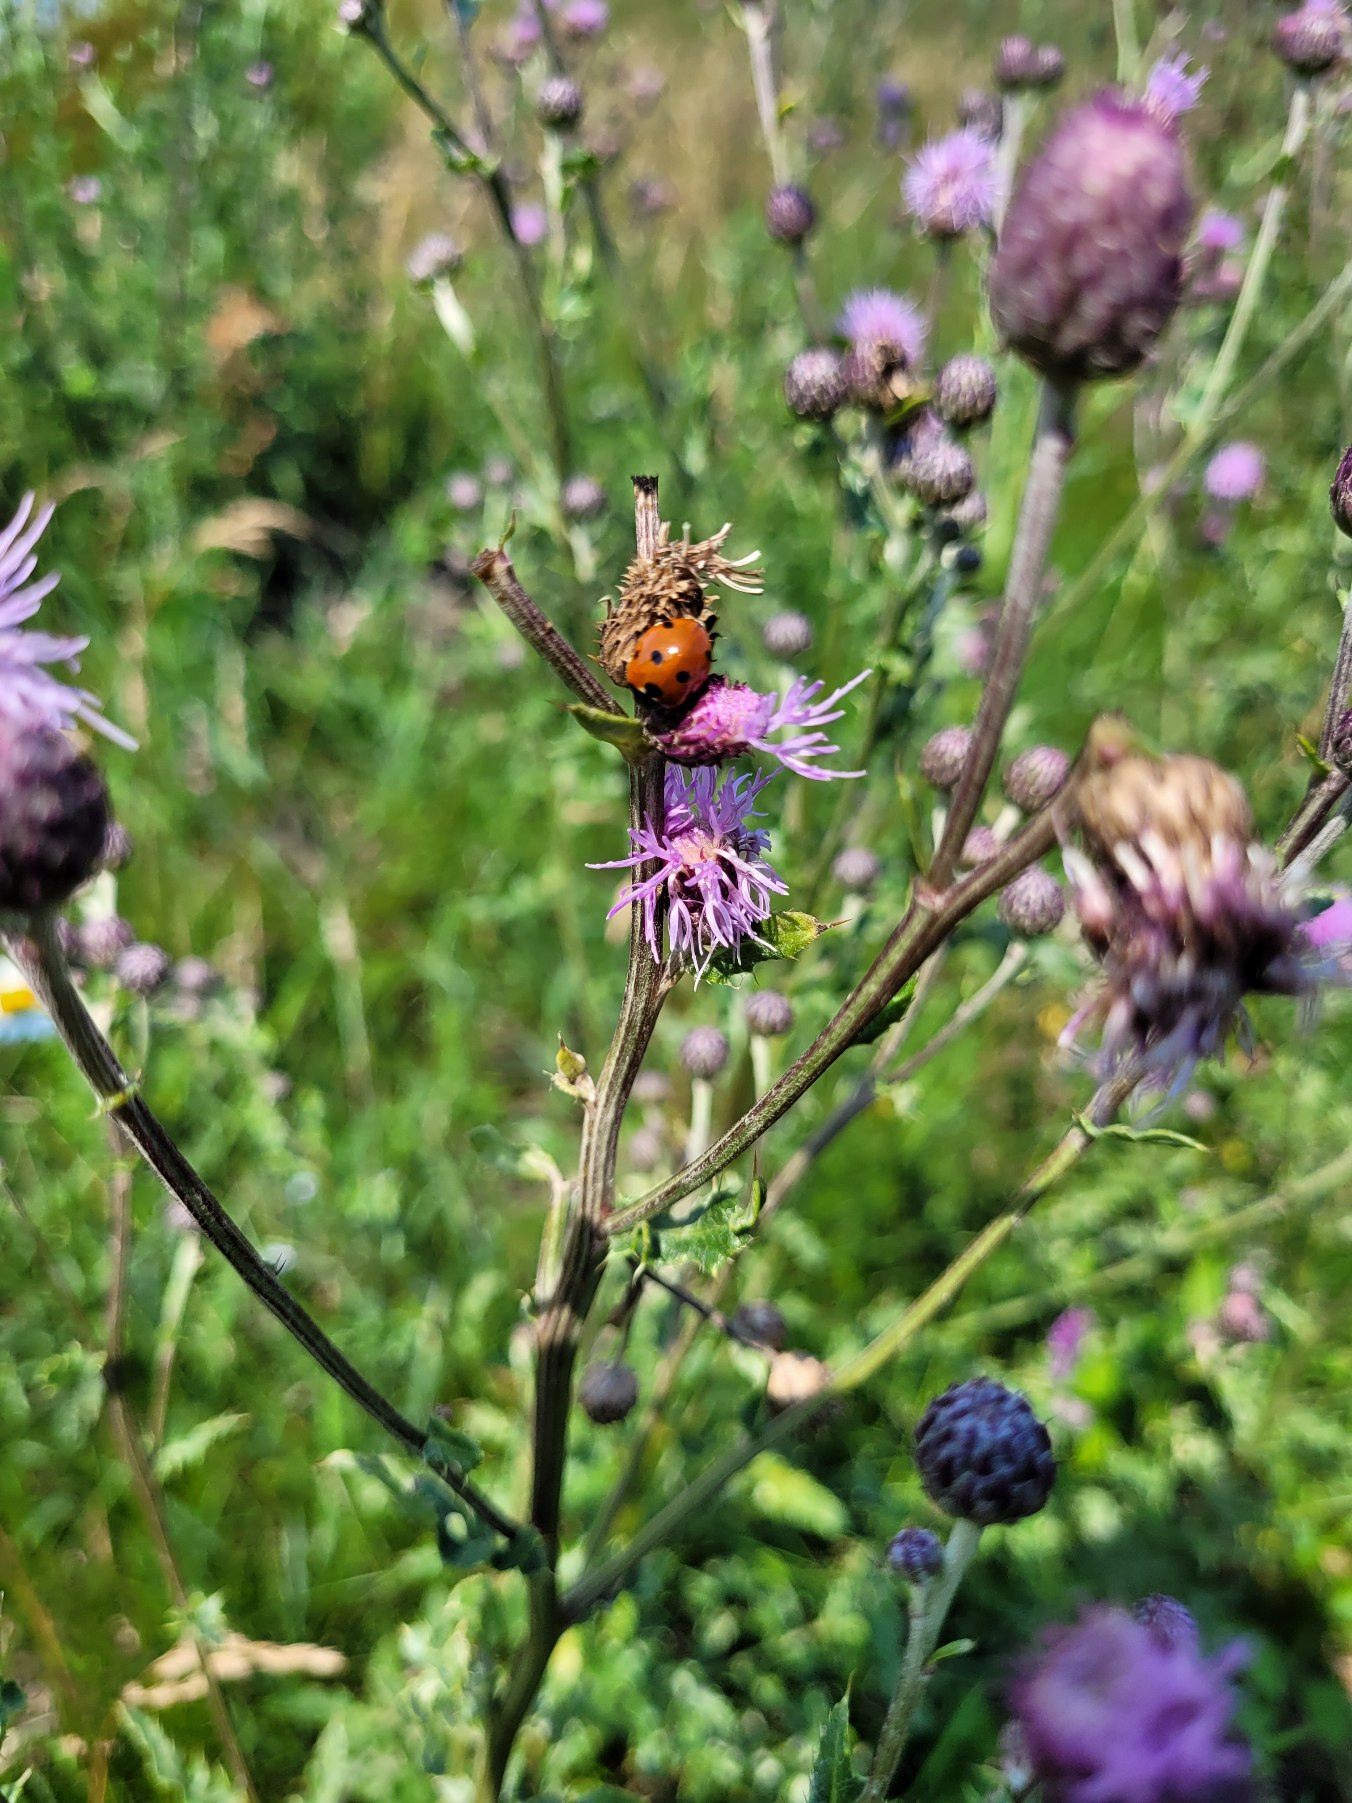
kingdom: Animalia
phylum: Arthropoda
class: Insecta
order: Coleoptera
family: Coccinellidae
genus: Coccinella
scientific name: Coccinella septempunctata
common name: Syvplettet mariehøne
